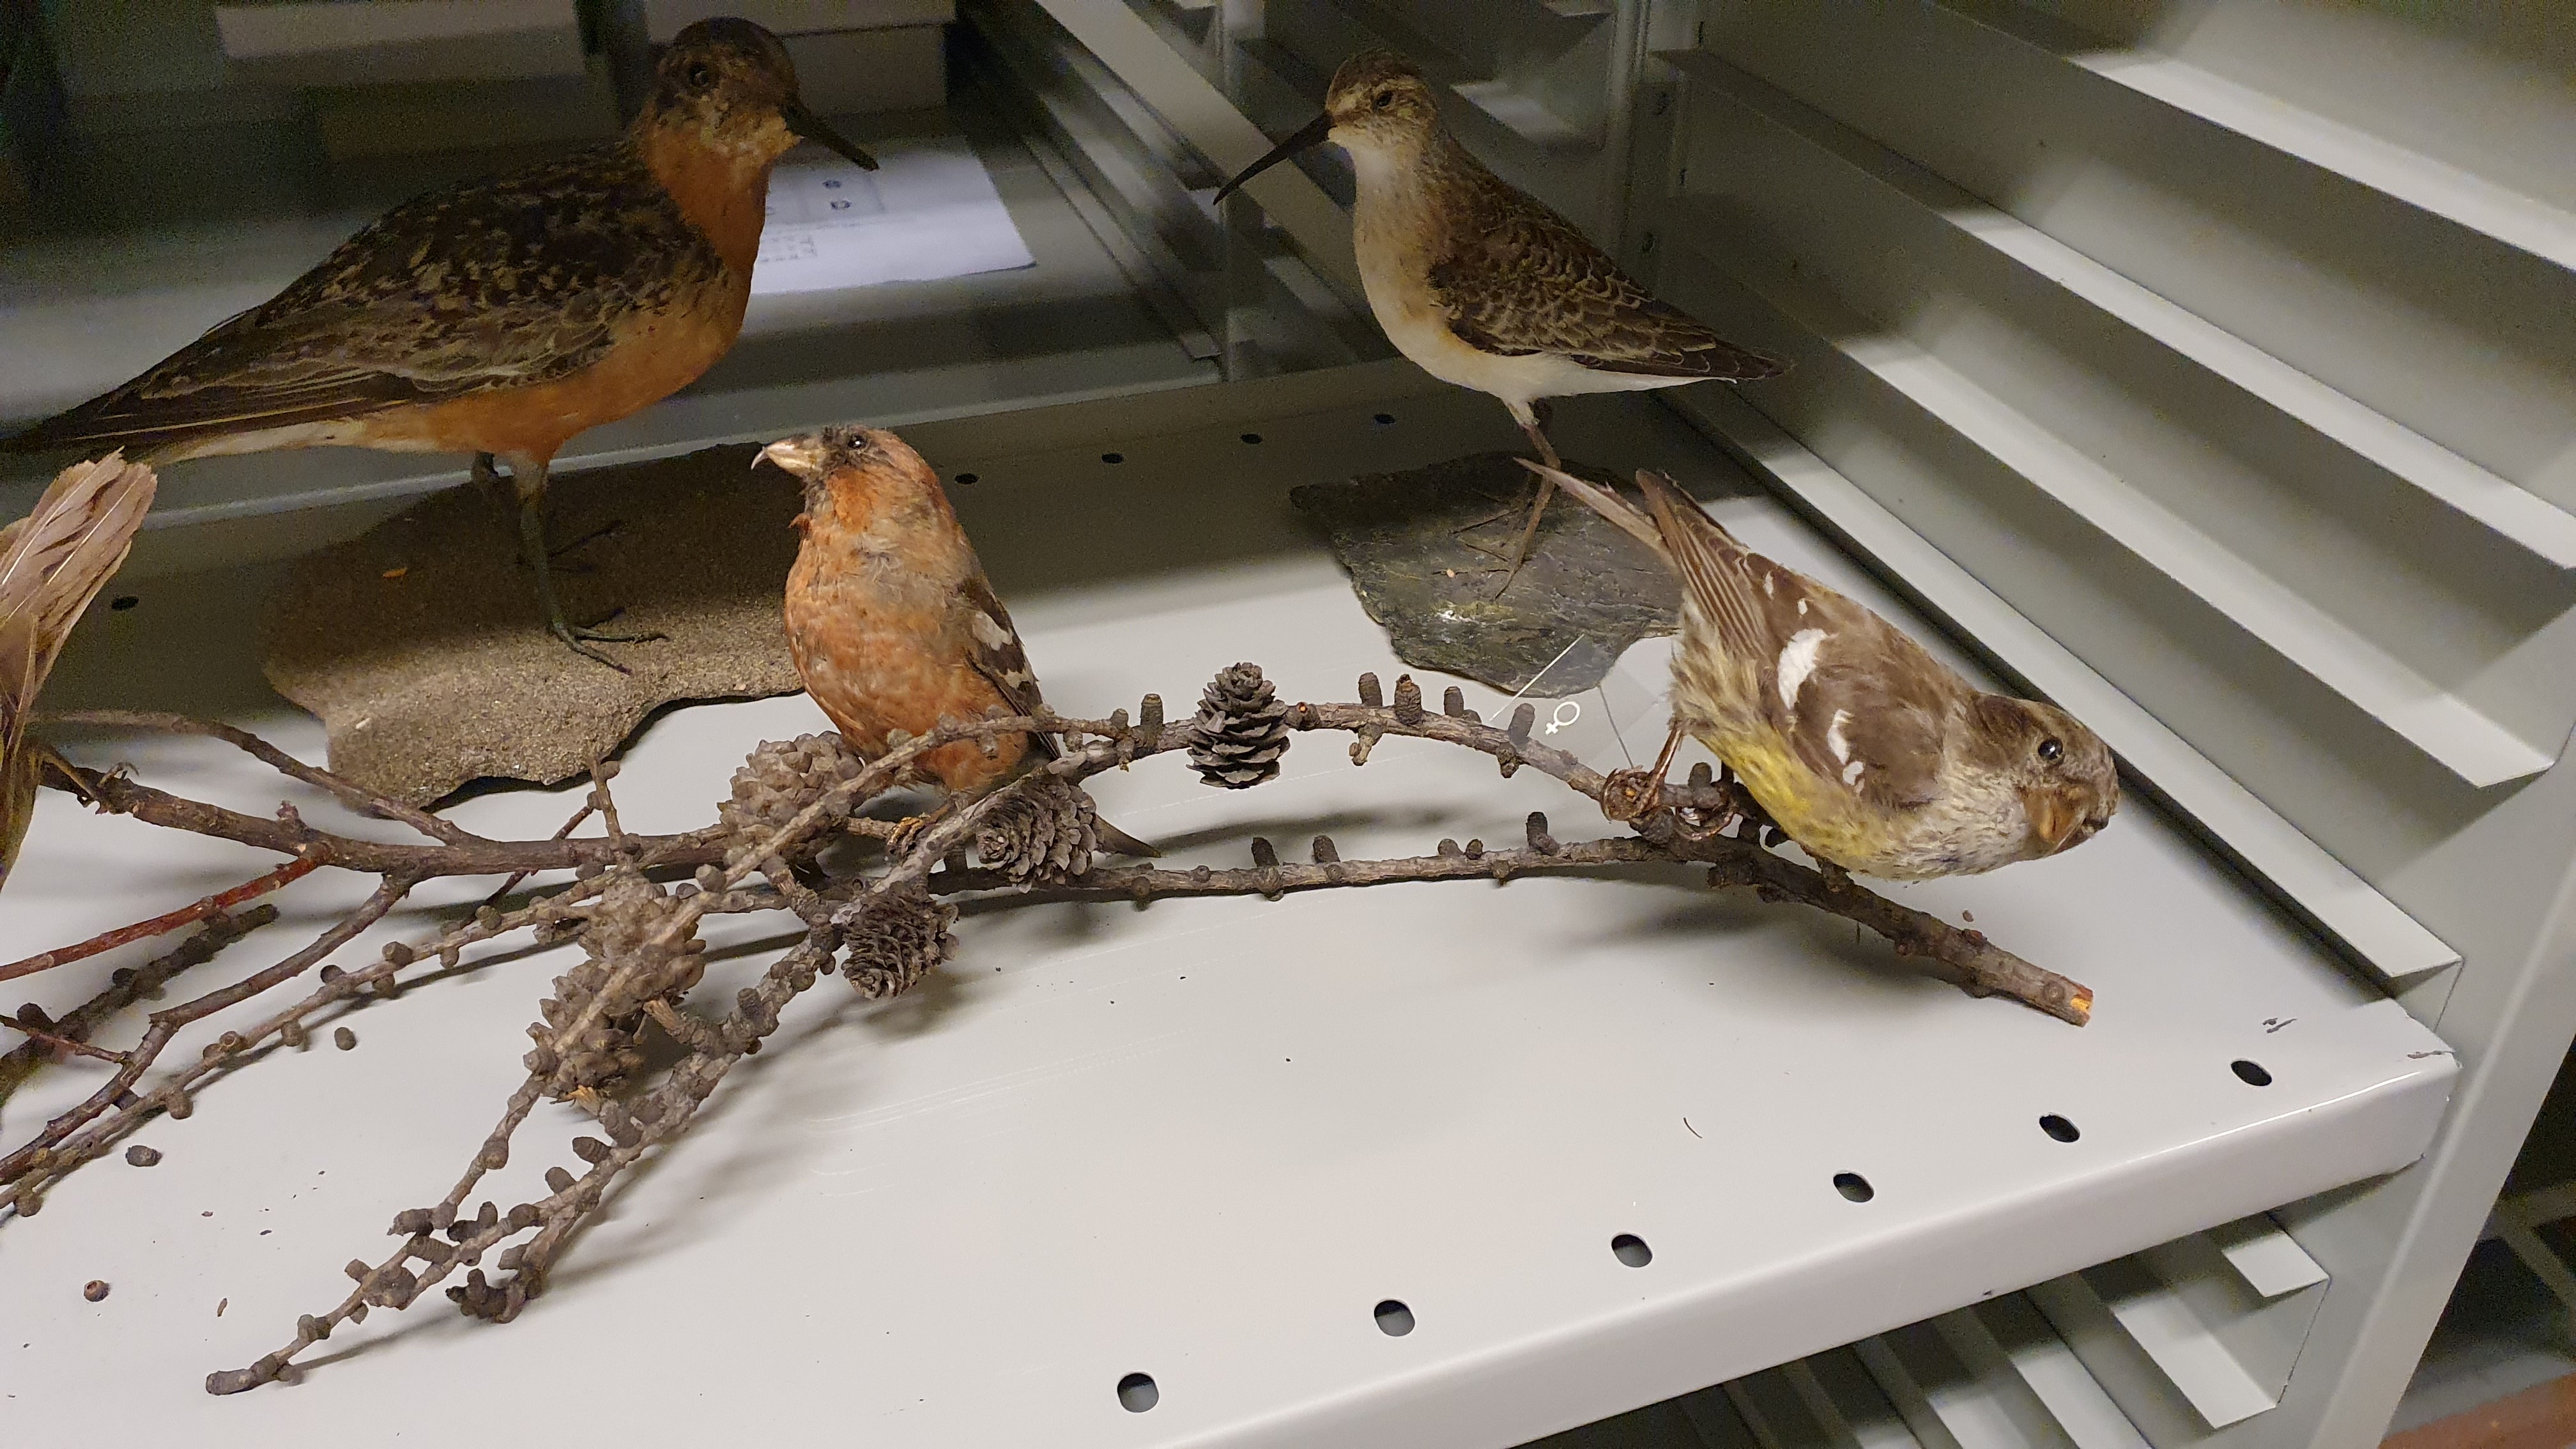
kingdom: Animalia
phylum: Chordata
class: Aves
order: Passeriformes
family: Fringillidae
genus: Loxia
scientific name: Loxia leucoptera
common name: Two-barred crossbill
